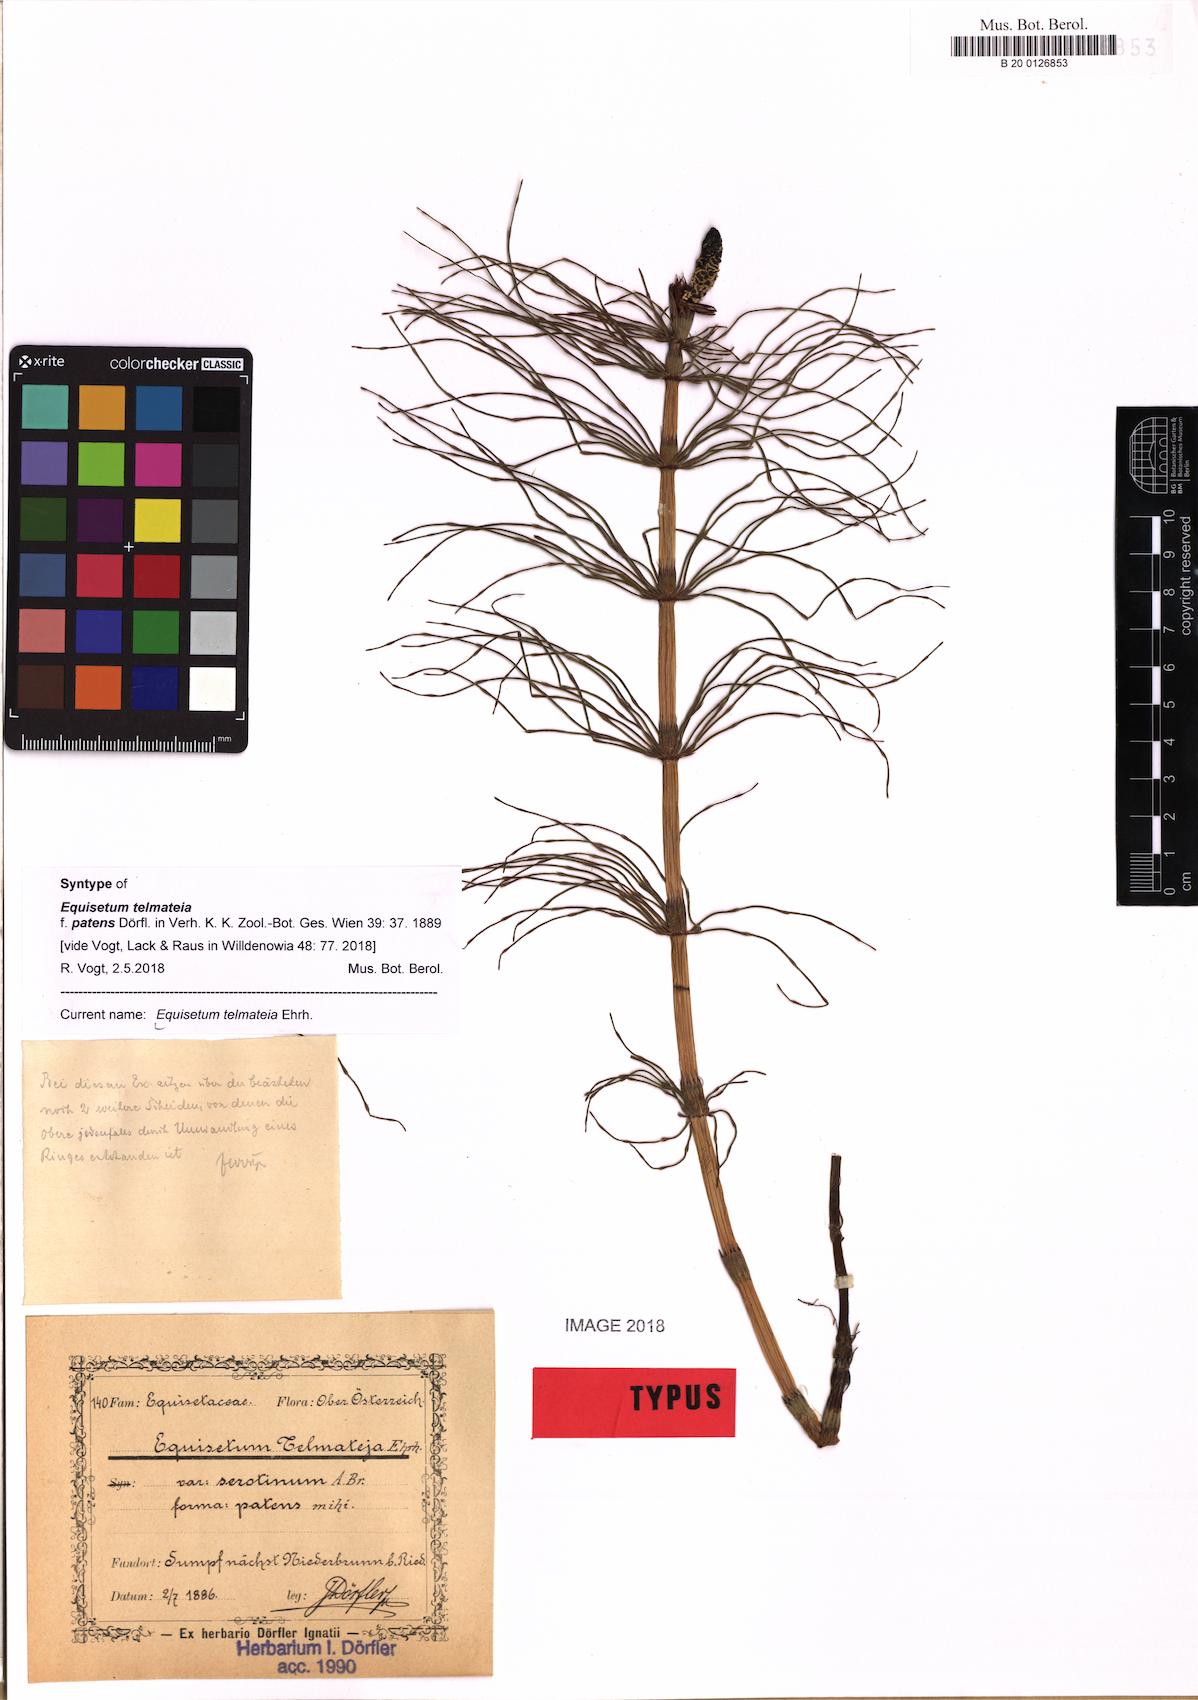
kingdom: Plantae
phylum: Tracheophyta
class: Polypodiopsida
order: Equisetales
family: Equisetaceae
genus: Equisetum
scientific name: Equisetum telmateia
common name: Great horsetail
